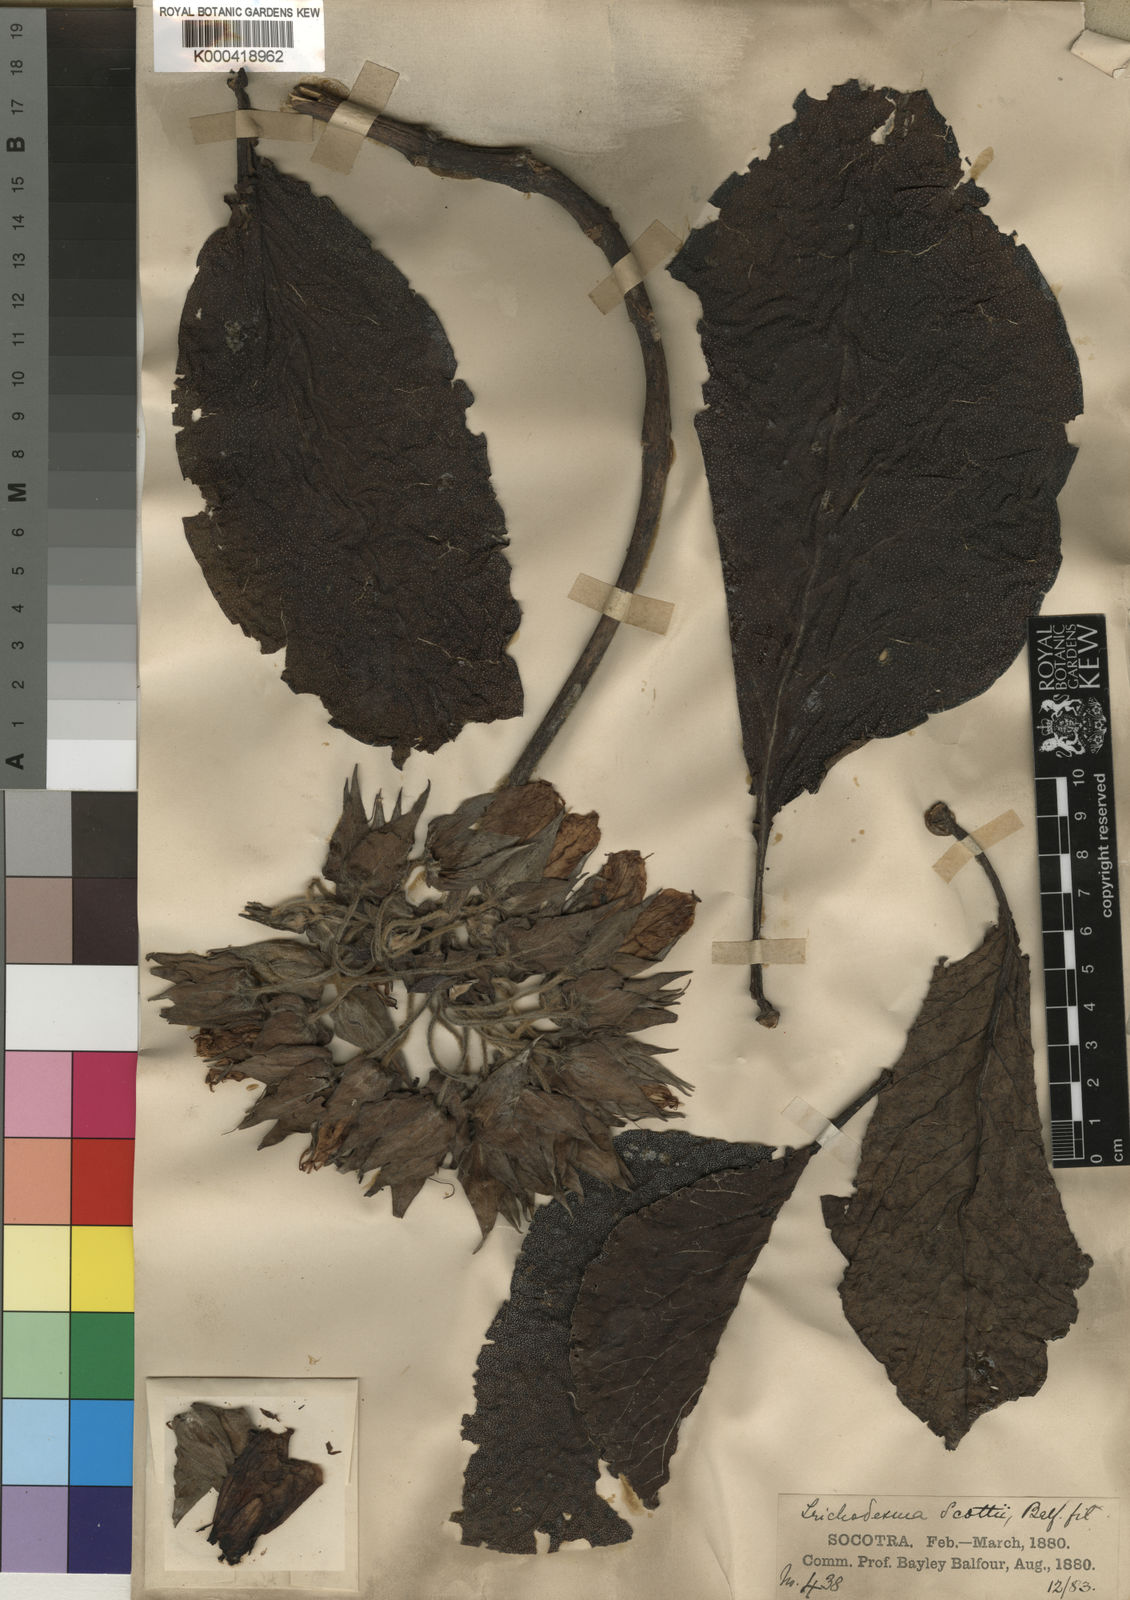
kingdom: Plantae
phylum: Tracheophyta
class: Magnoliopsida
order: Boraginales
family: Boraginaceae
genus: Trichodesma
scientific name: Trichodesma scottii
